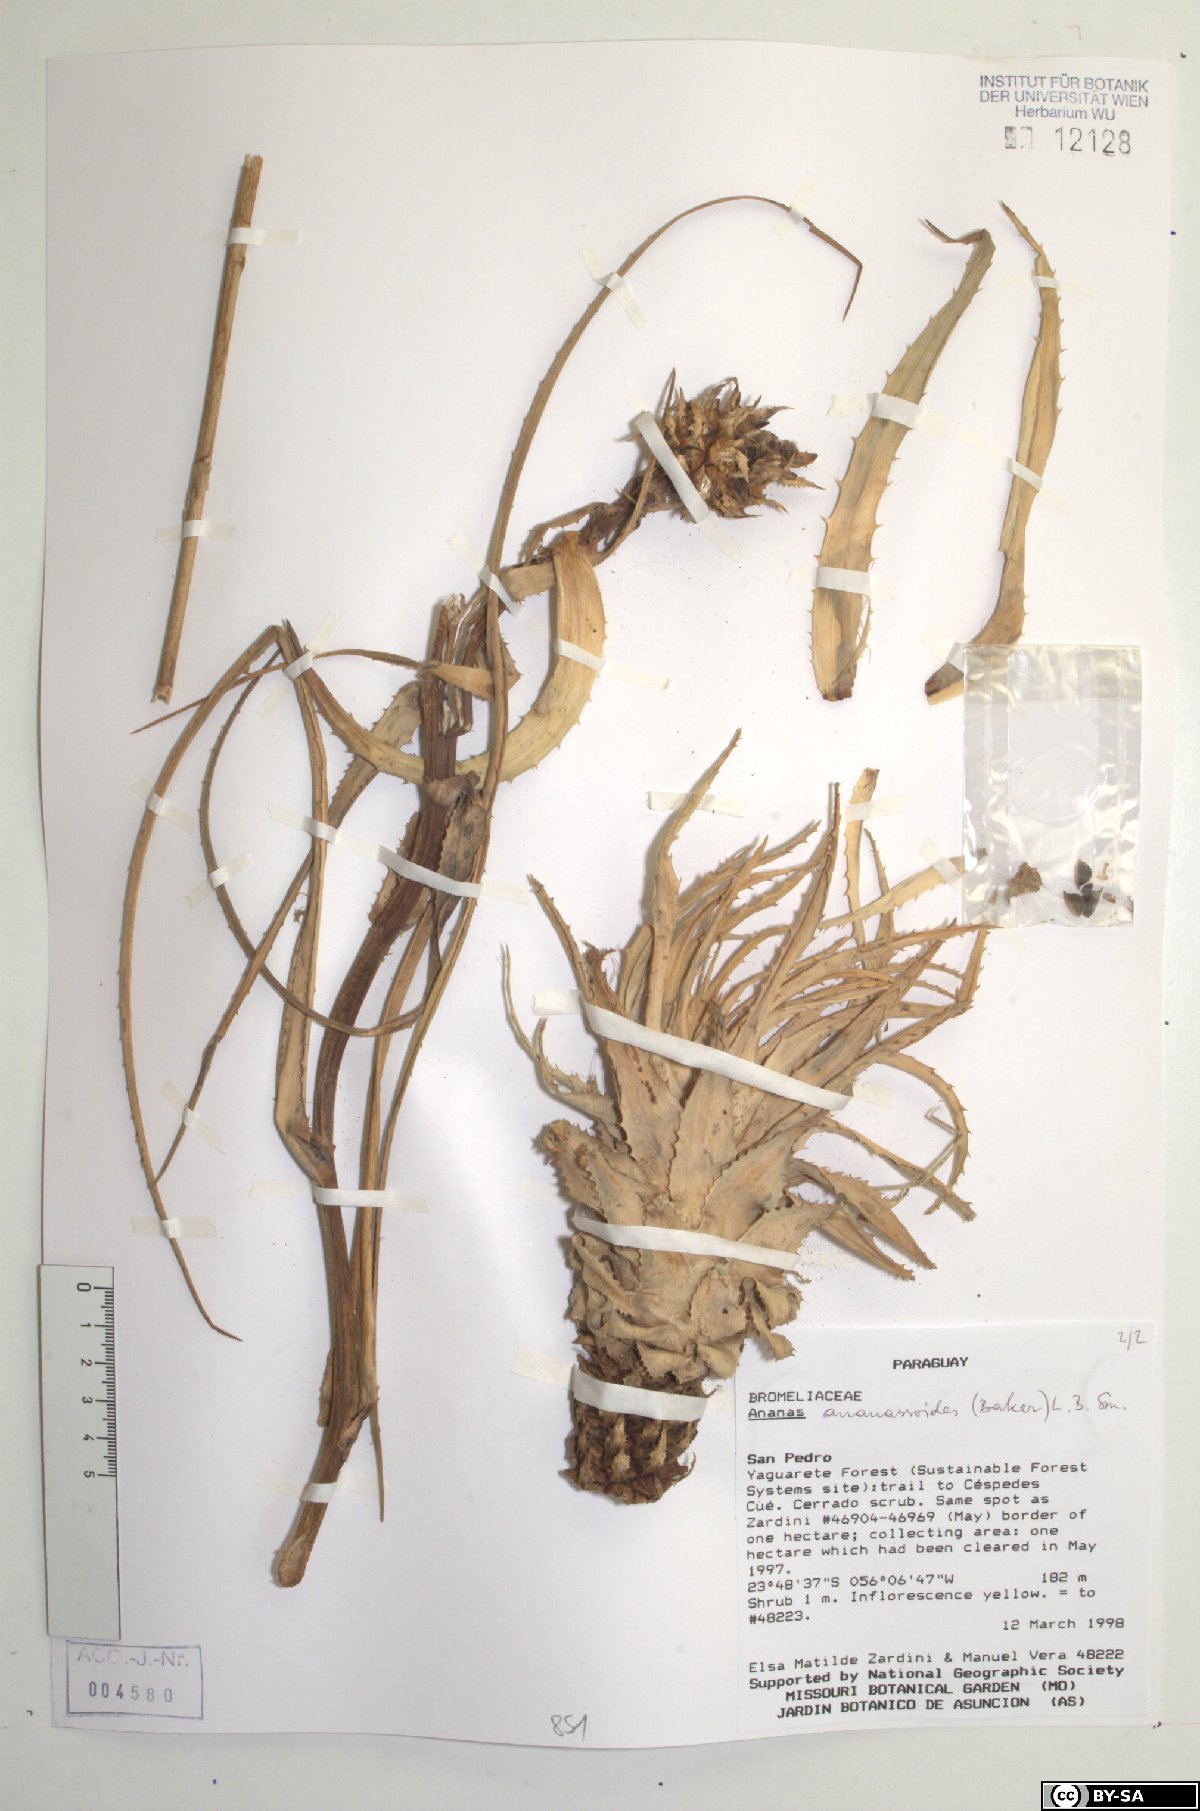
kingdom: Plantae
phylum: Tracheophyta
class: Liliopsida
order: Poales
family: Bromeliaceae
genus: Ananas
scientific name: Ananas comosus
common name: Pineapple
